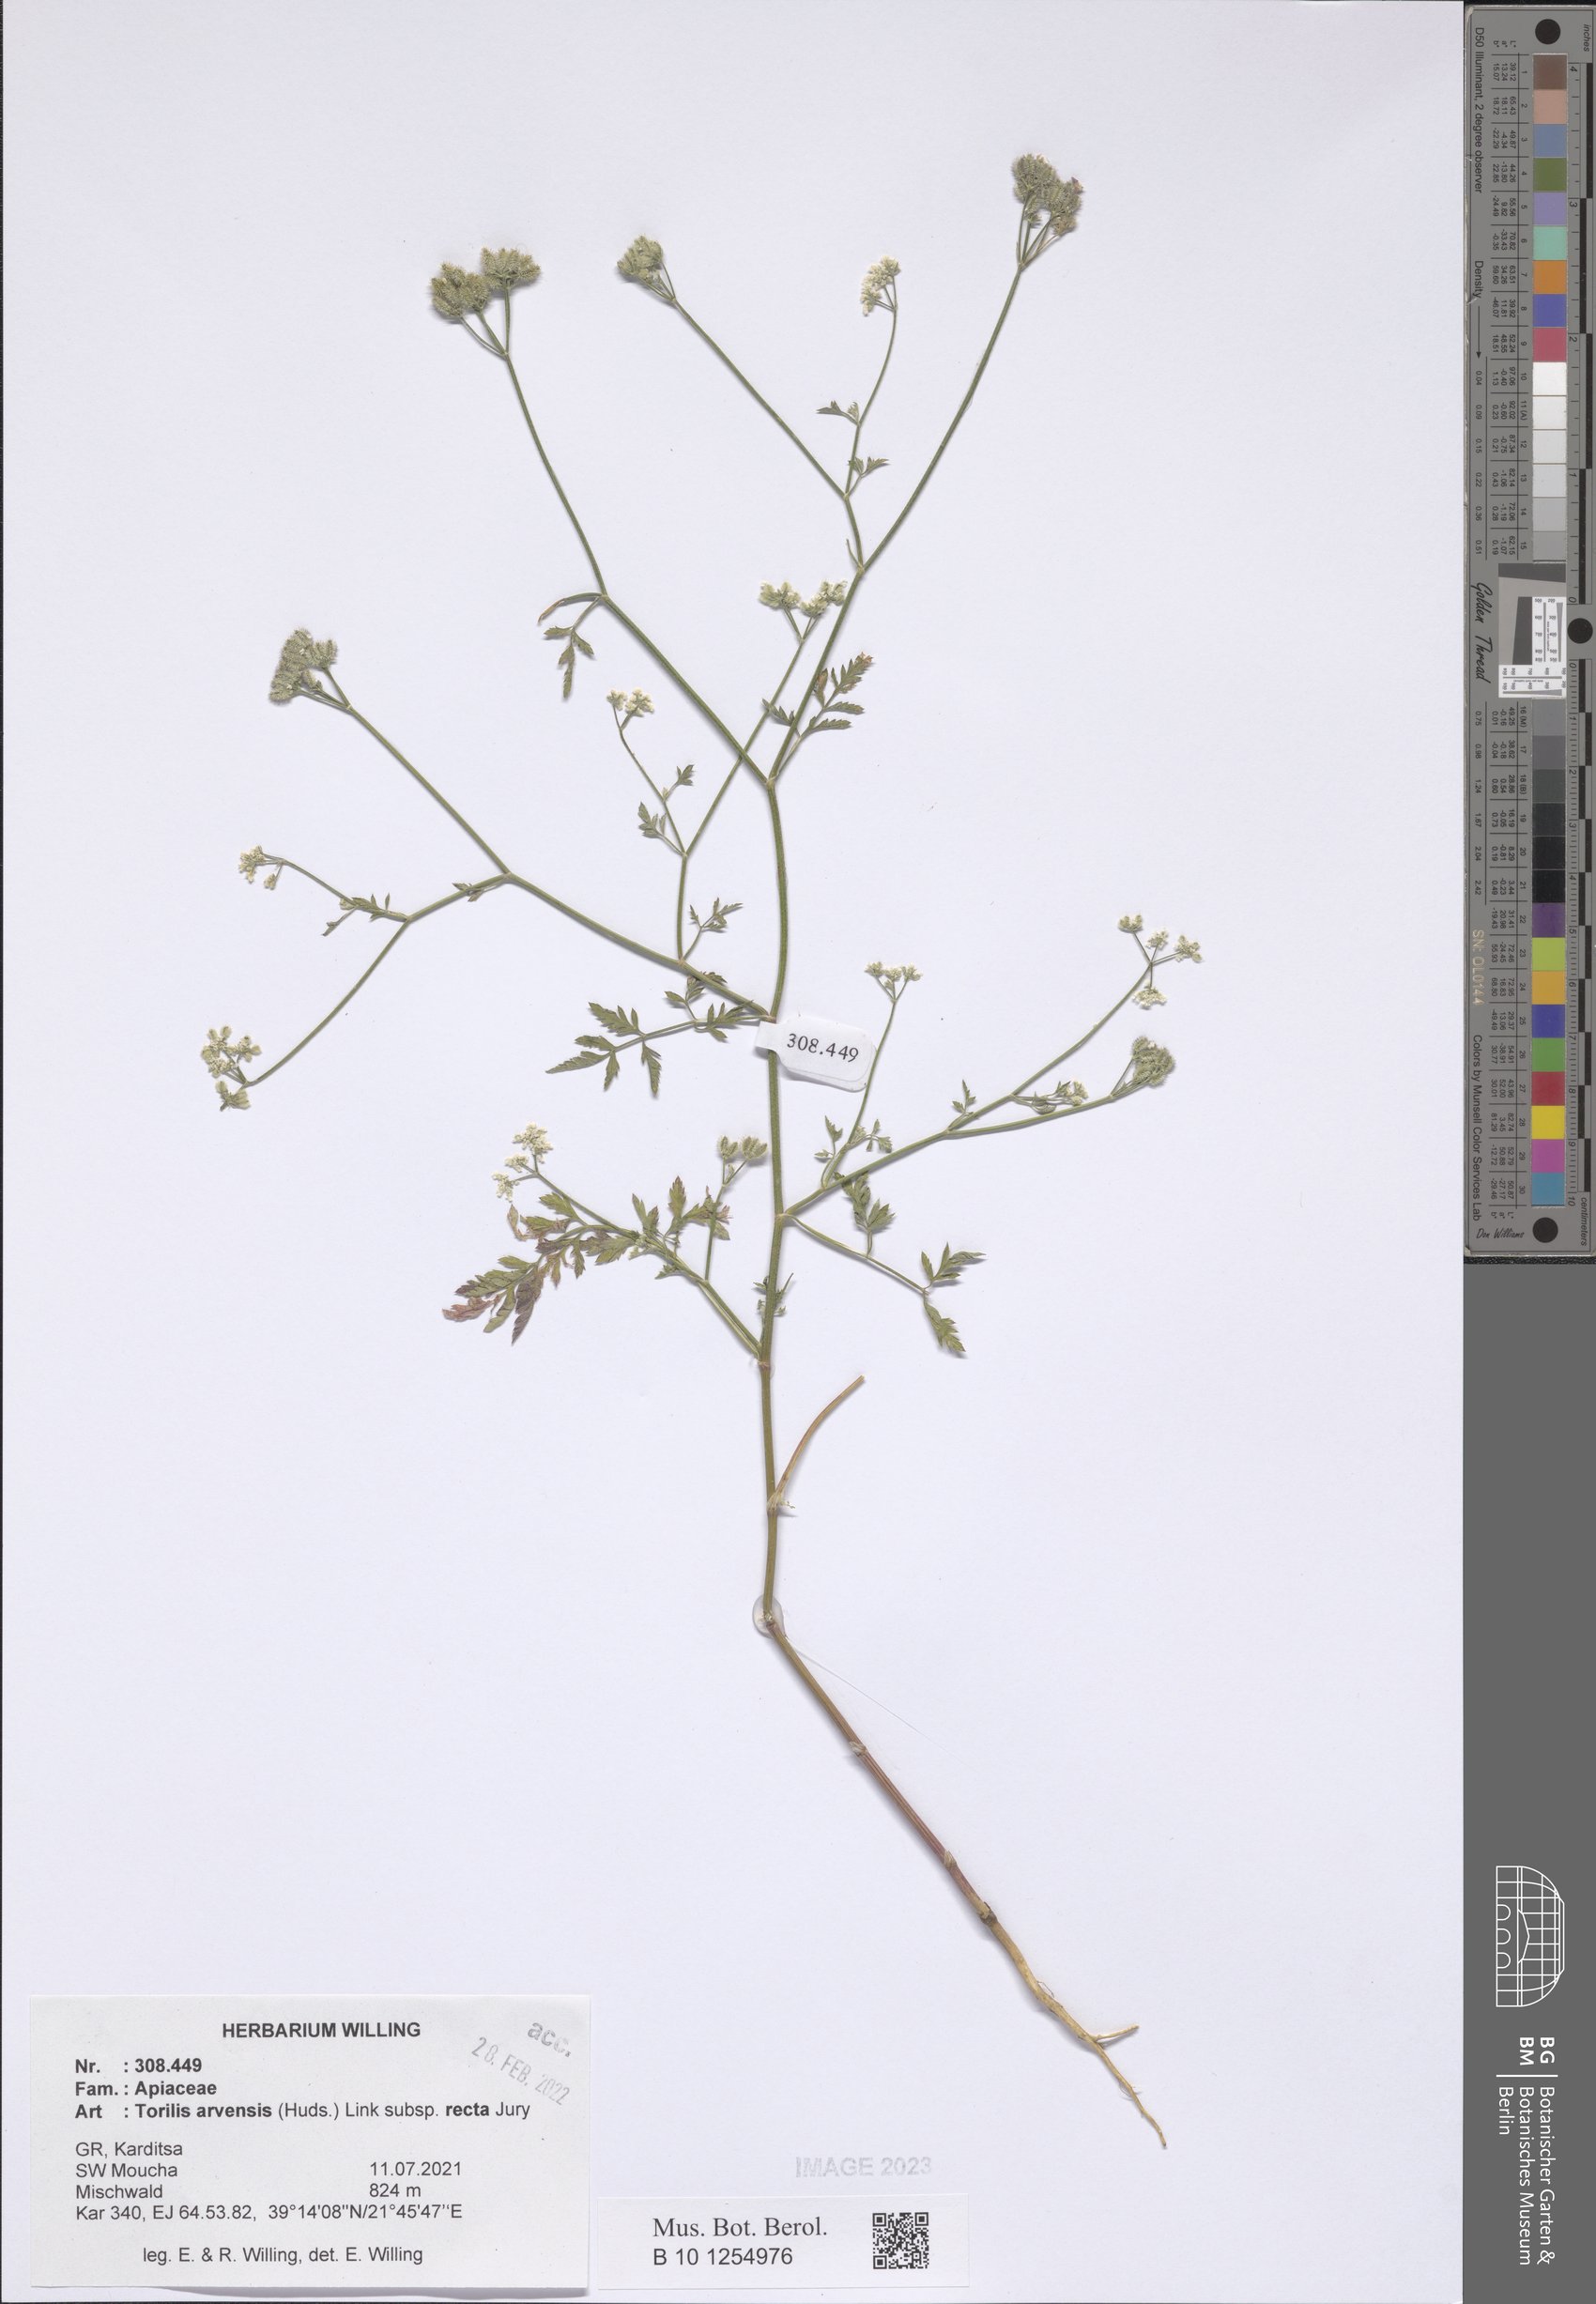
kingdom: Plantae
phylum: Tracheophyta
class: Magnoliopsida
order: Apiales
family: Apiaceae
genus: Torilis
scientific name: Torilis arvensis
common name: Spreading hedge-parsley
